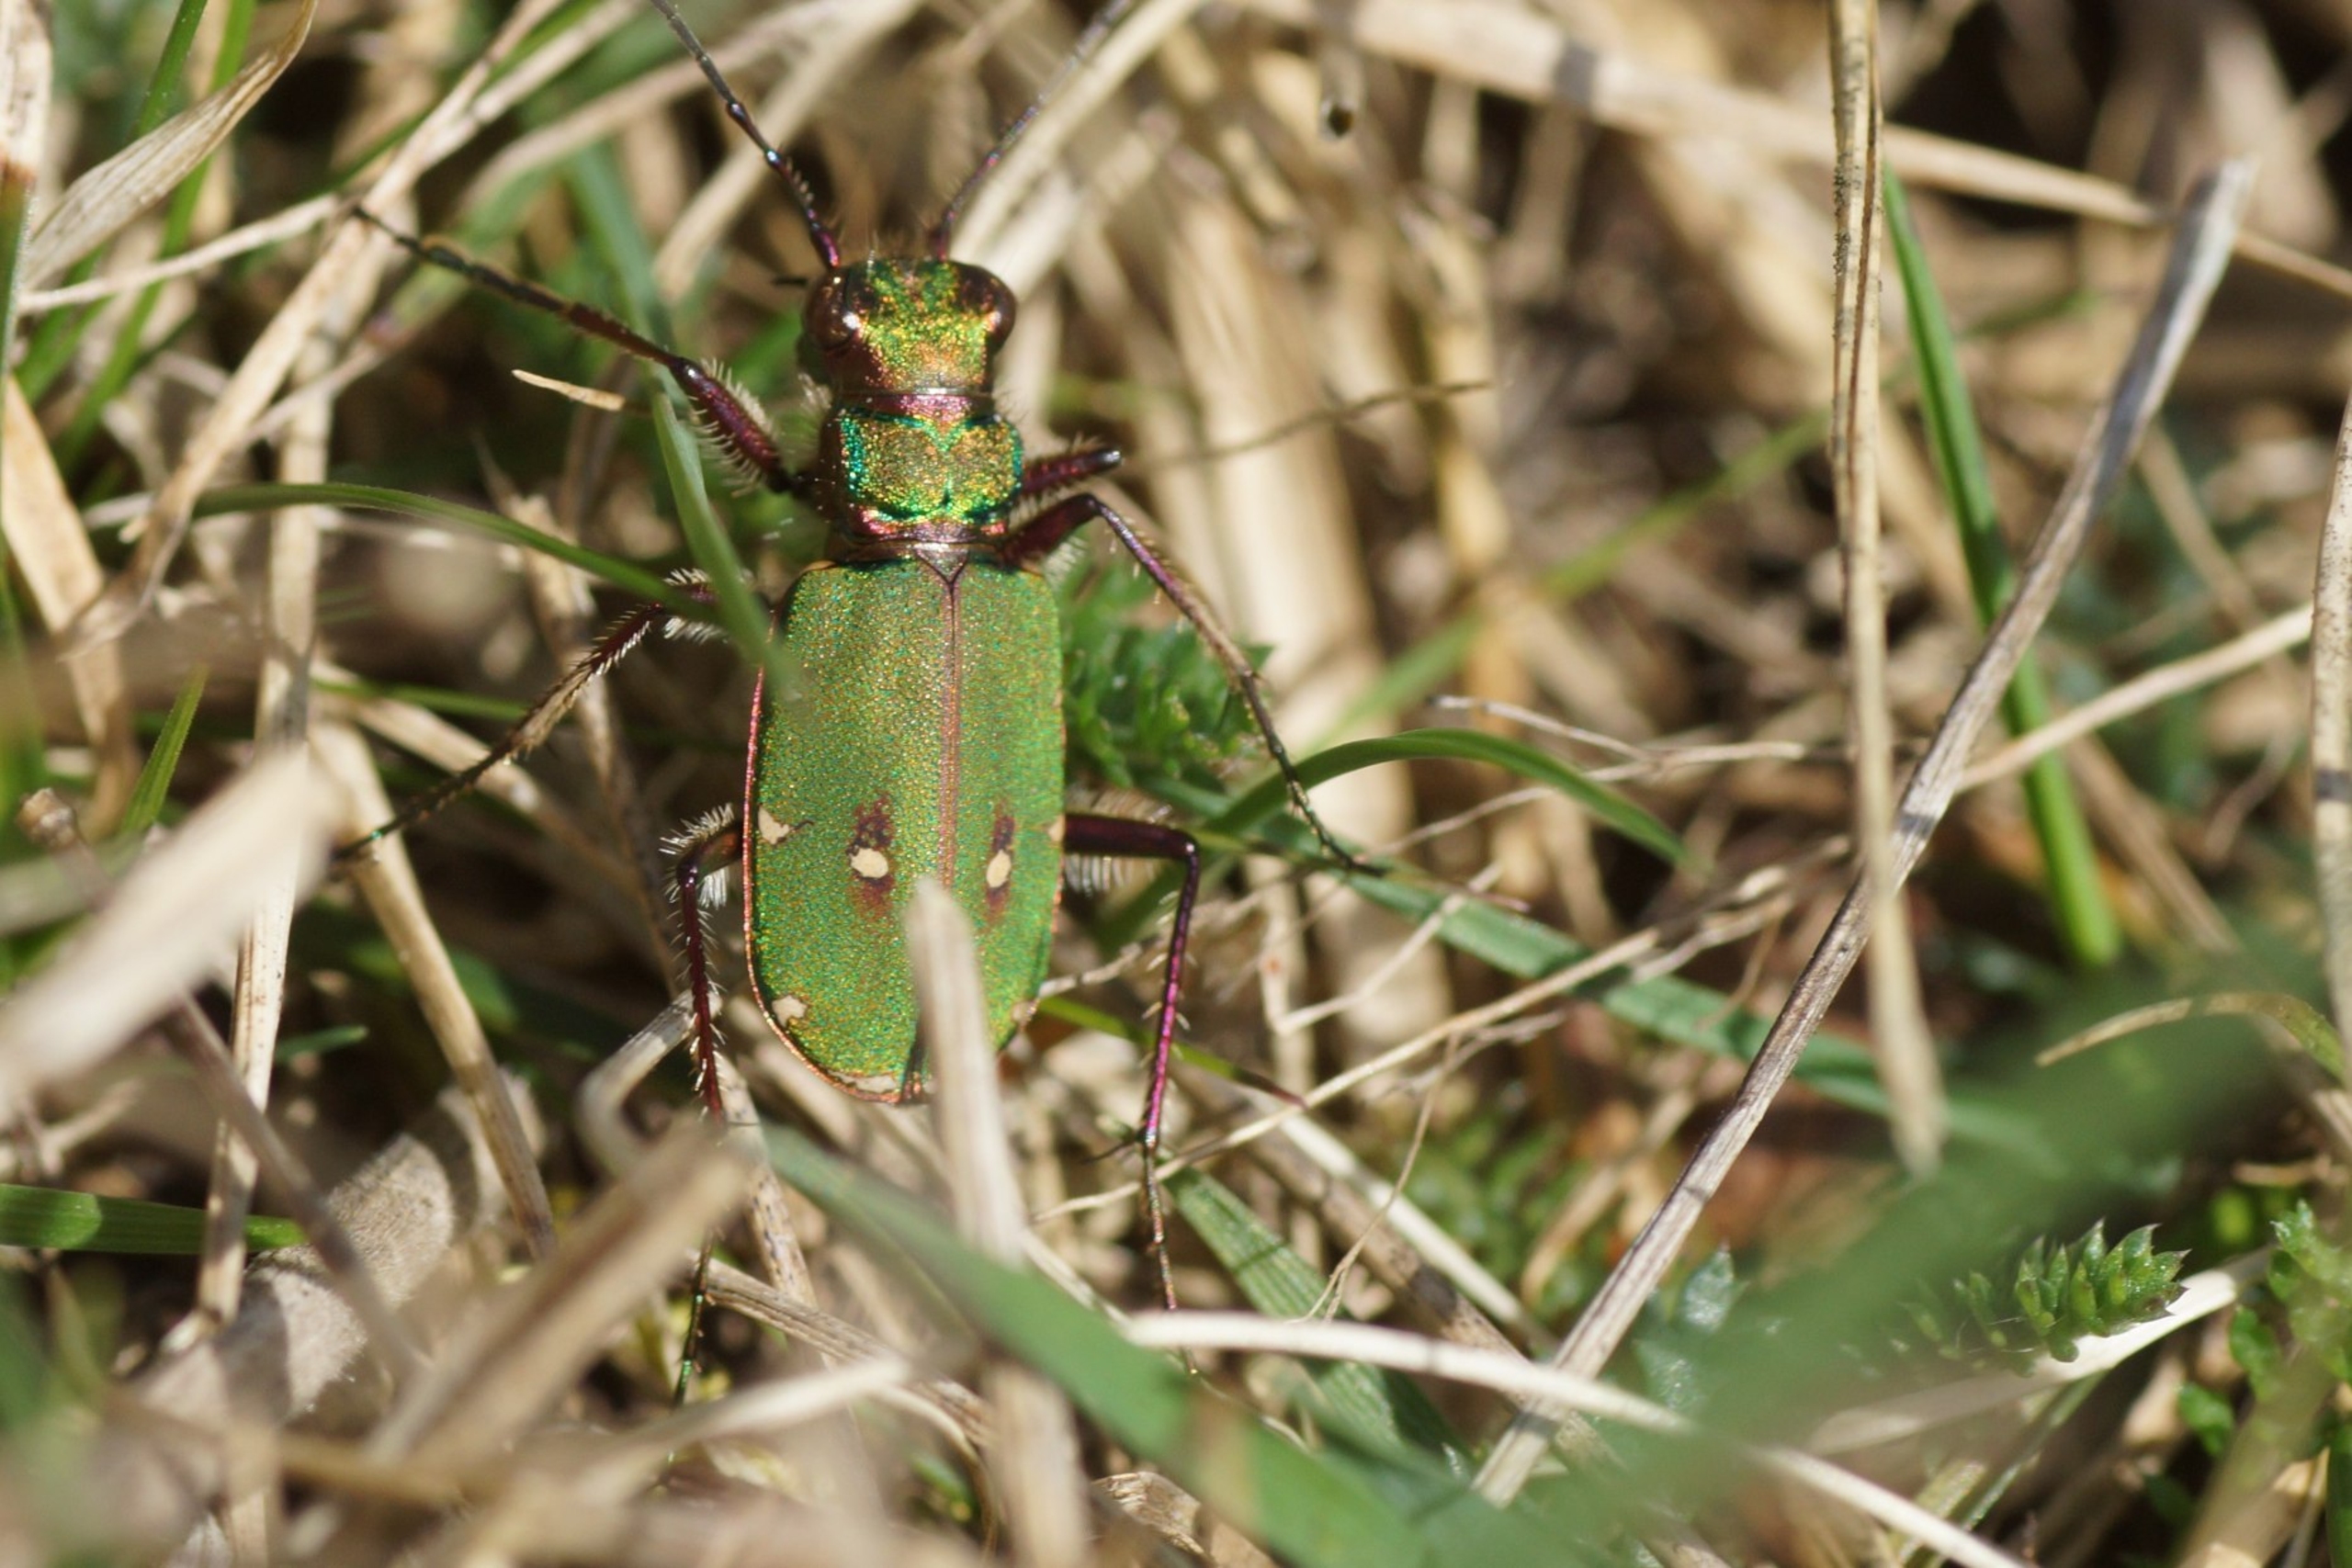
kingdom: Animalia
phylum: Arthropoda
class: Insecta
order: Coleoptera
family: Carabidae
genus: Cicindela
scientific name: Cicindela campestris
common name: Grøn sandspringer
